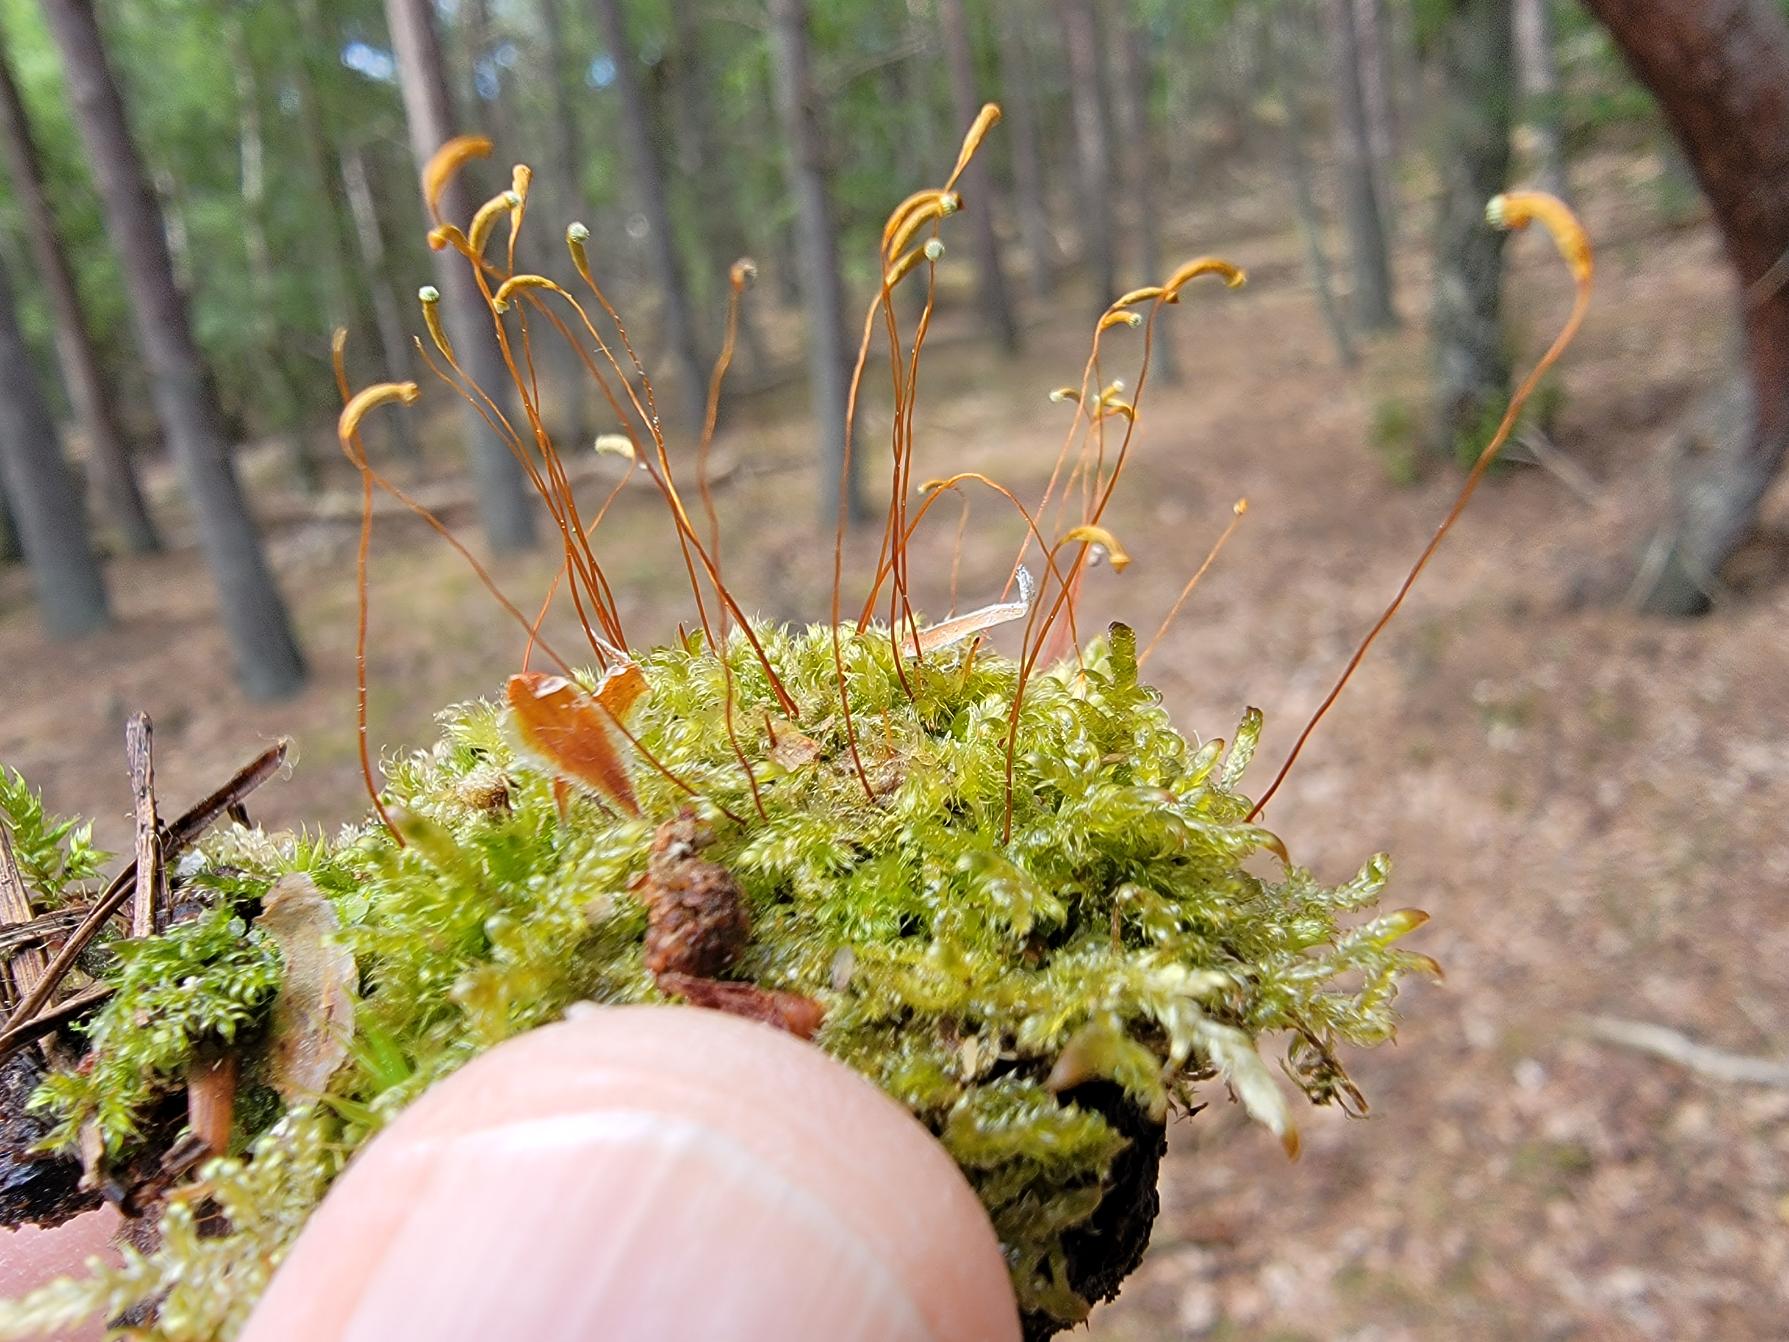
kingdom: Plantae
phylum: Bryophyta
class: Bryopsida
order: Hypnales
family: Plagiotheciaceae
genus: Herzogiella
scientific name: Herzogiella seligeri
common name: Stub-pølsekapsel
